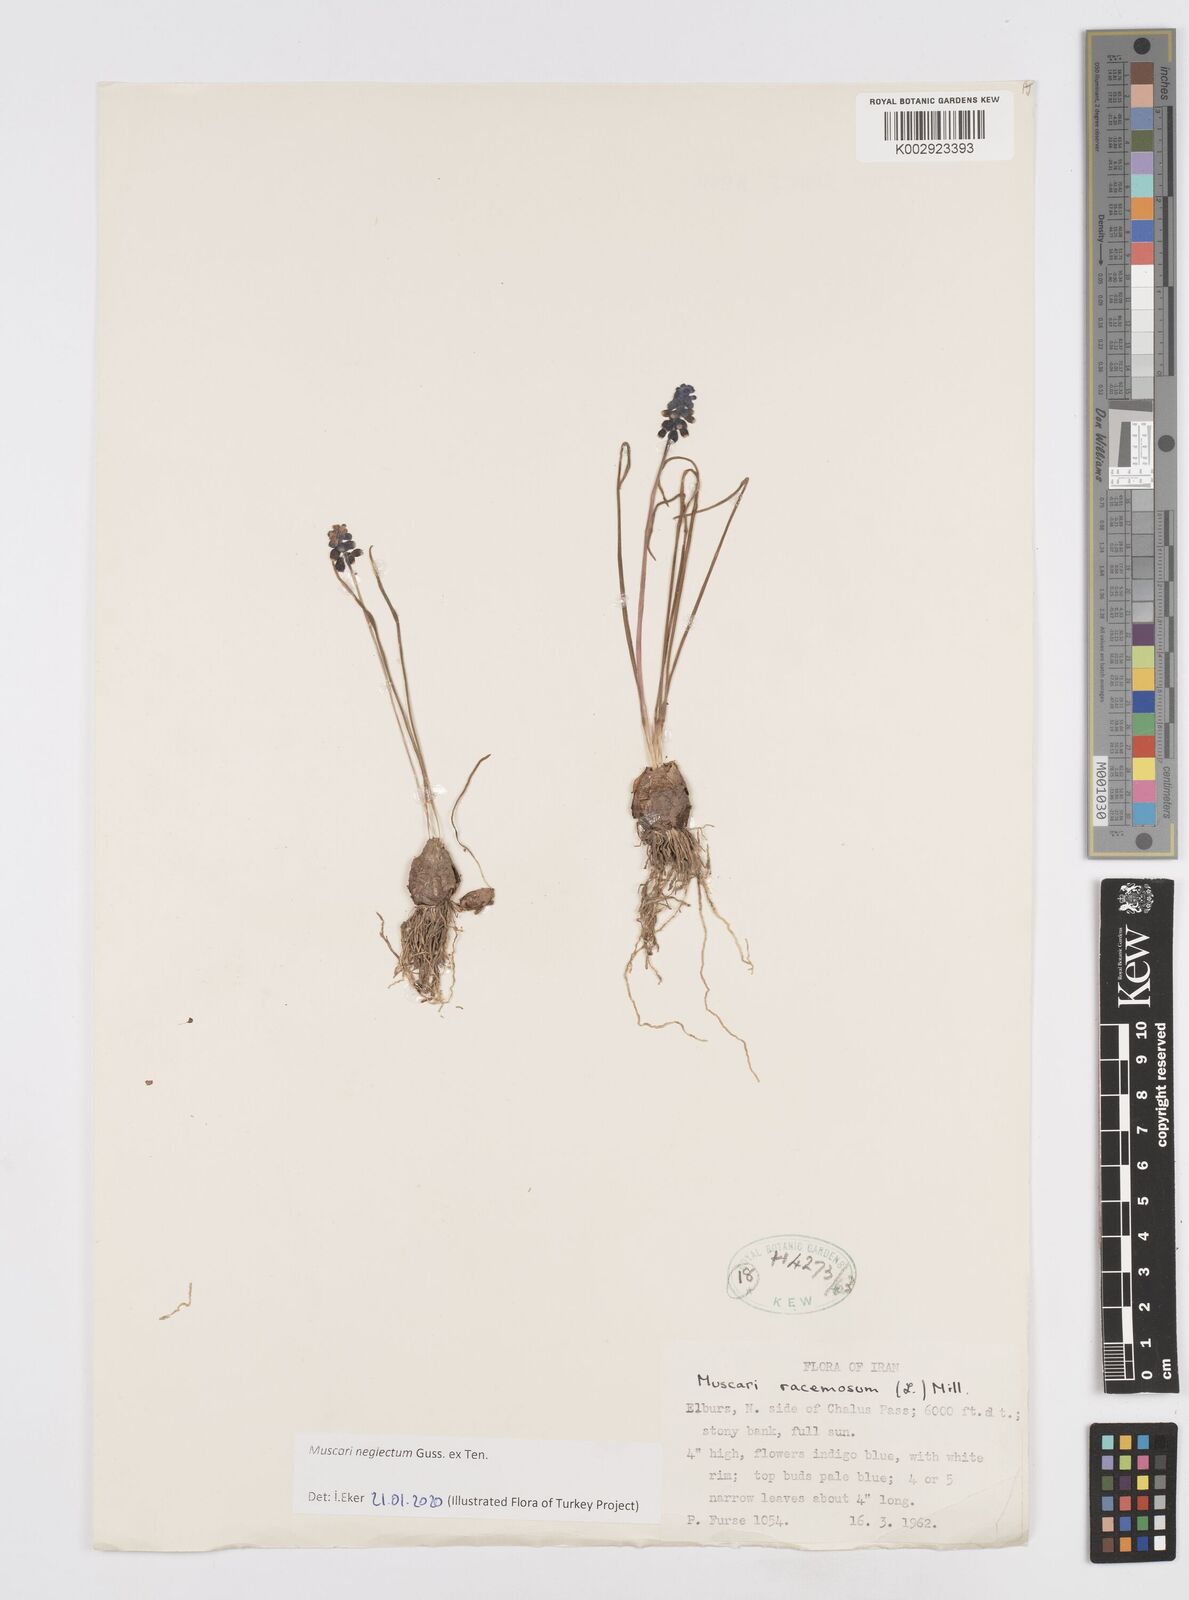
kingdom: Plantae
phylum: Tracheophyta
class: Liliopsida
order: Asparagales
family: Asparagaceae
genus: Muscari
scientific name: Muscari neglectum
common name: Grape-hyacinth
